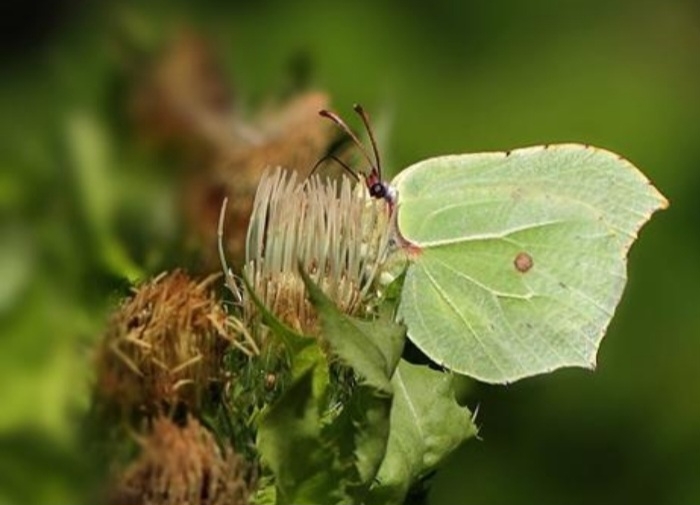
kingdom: Animalia
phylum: Arthropoda
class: Insecta
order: Lepidoptera
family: Pieridae
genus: Gonepteryx
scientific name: Gonepteryx rhamni
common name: Citronsommerfugl
